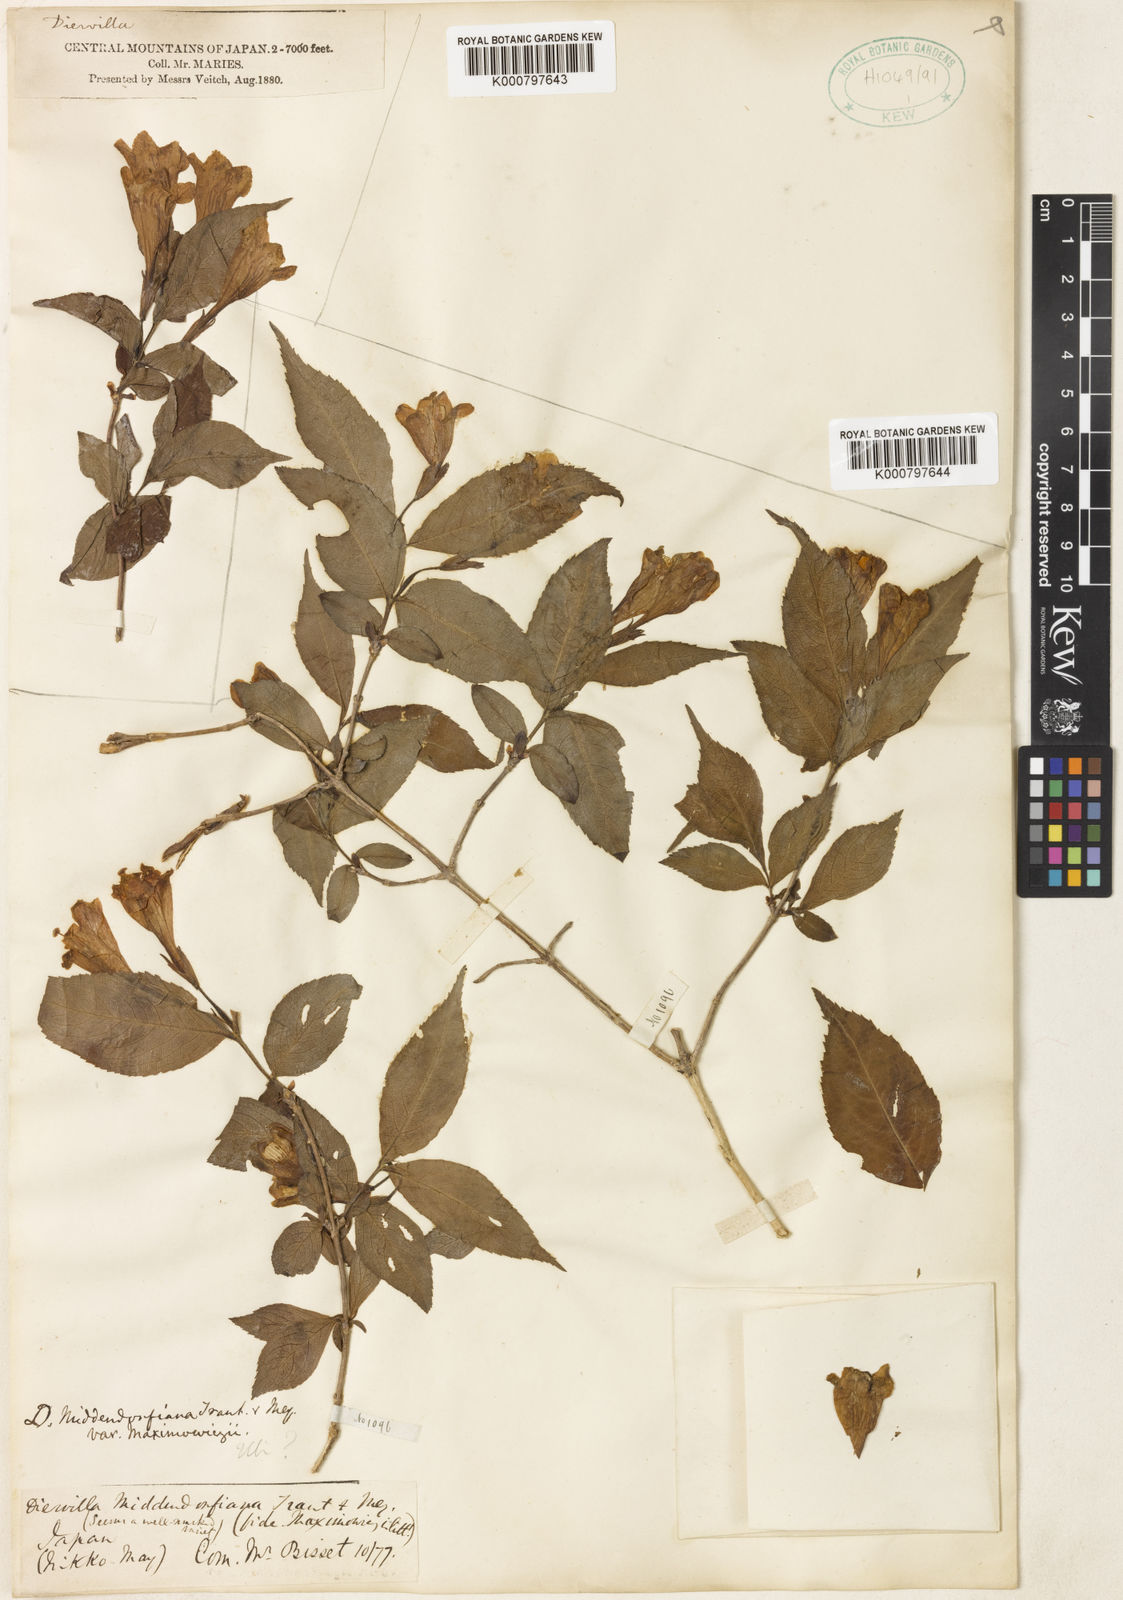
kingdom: Plantae
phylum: Tracheophyta
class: Magnoliopsida
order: Dipsacales
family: Caprifoliaceae
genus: Weigela
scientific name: Weigela maximowiczii
